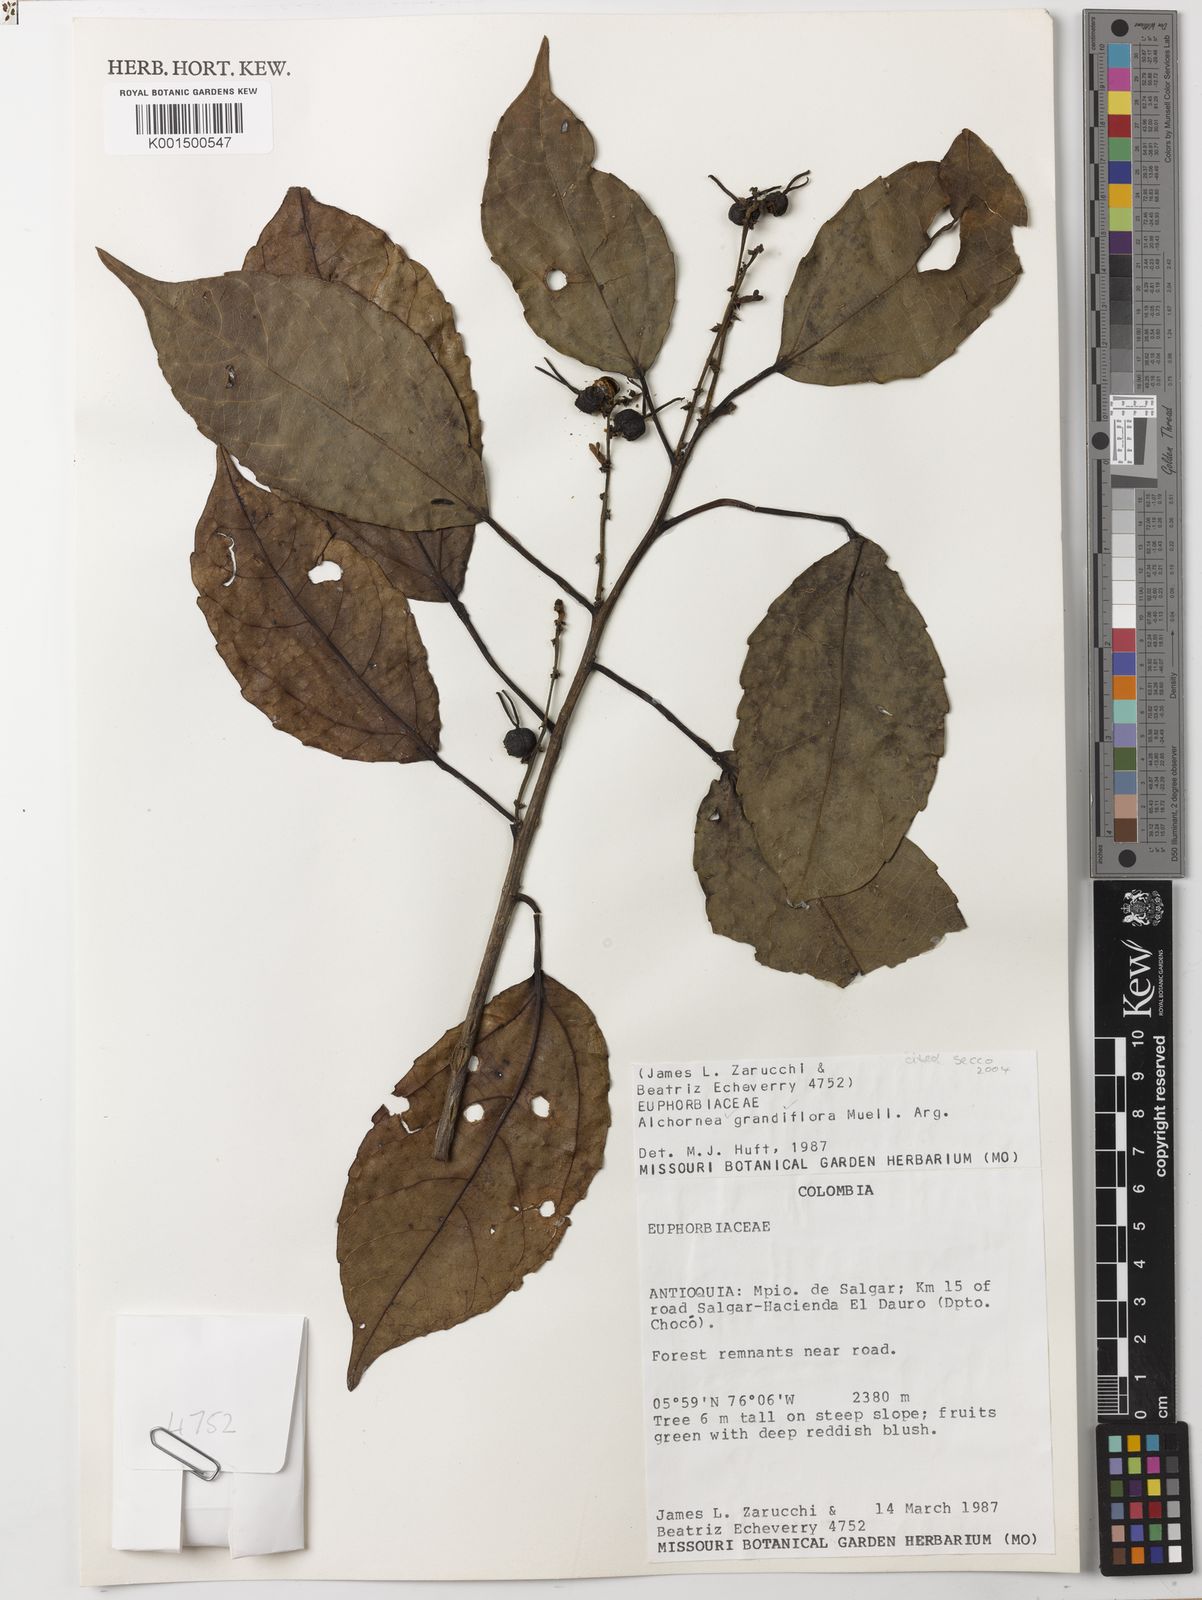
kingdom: Plantae
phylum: Tracheophyta
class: Magnoliopsida
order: Malpighiales
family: Euphorbiaceae
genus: Alchornea
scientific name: Alchornea grandiflora
